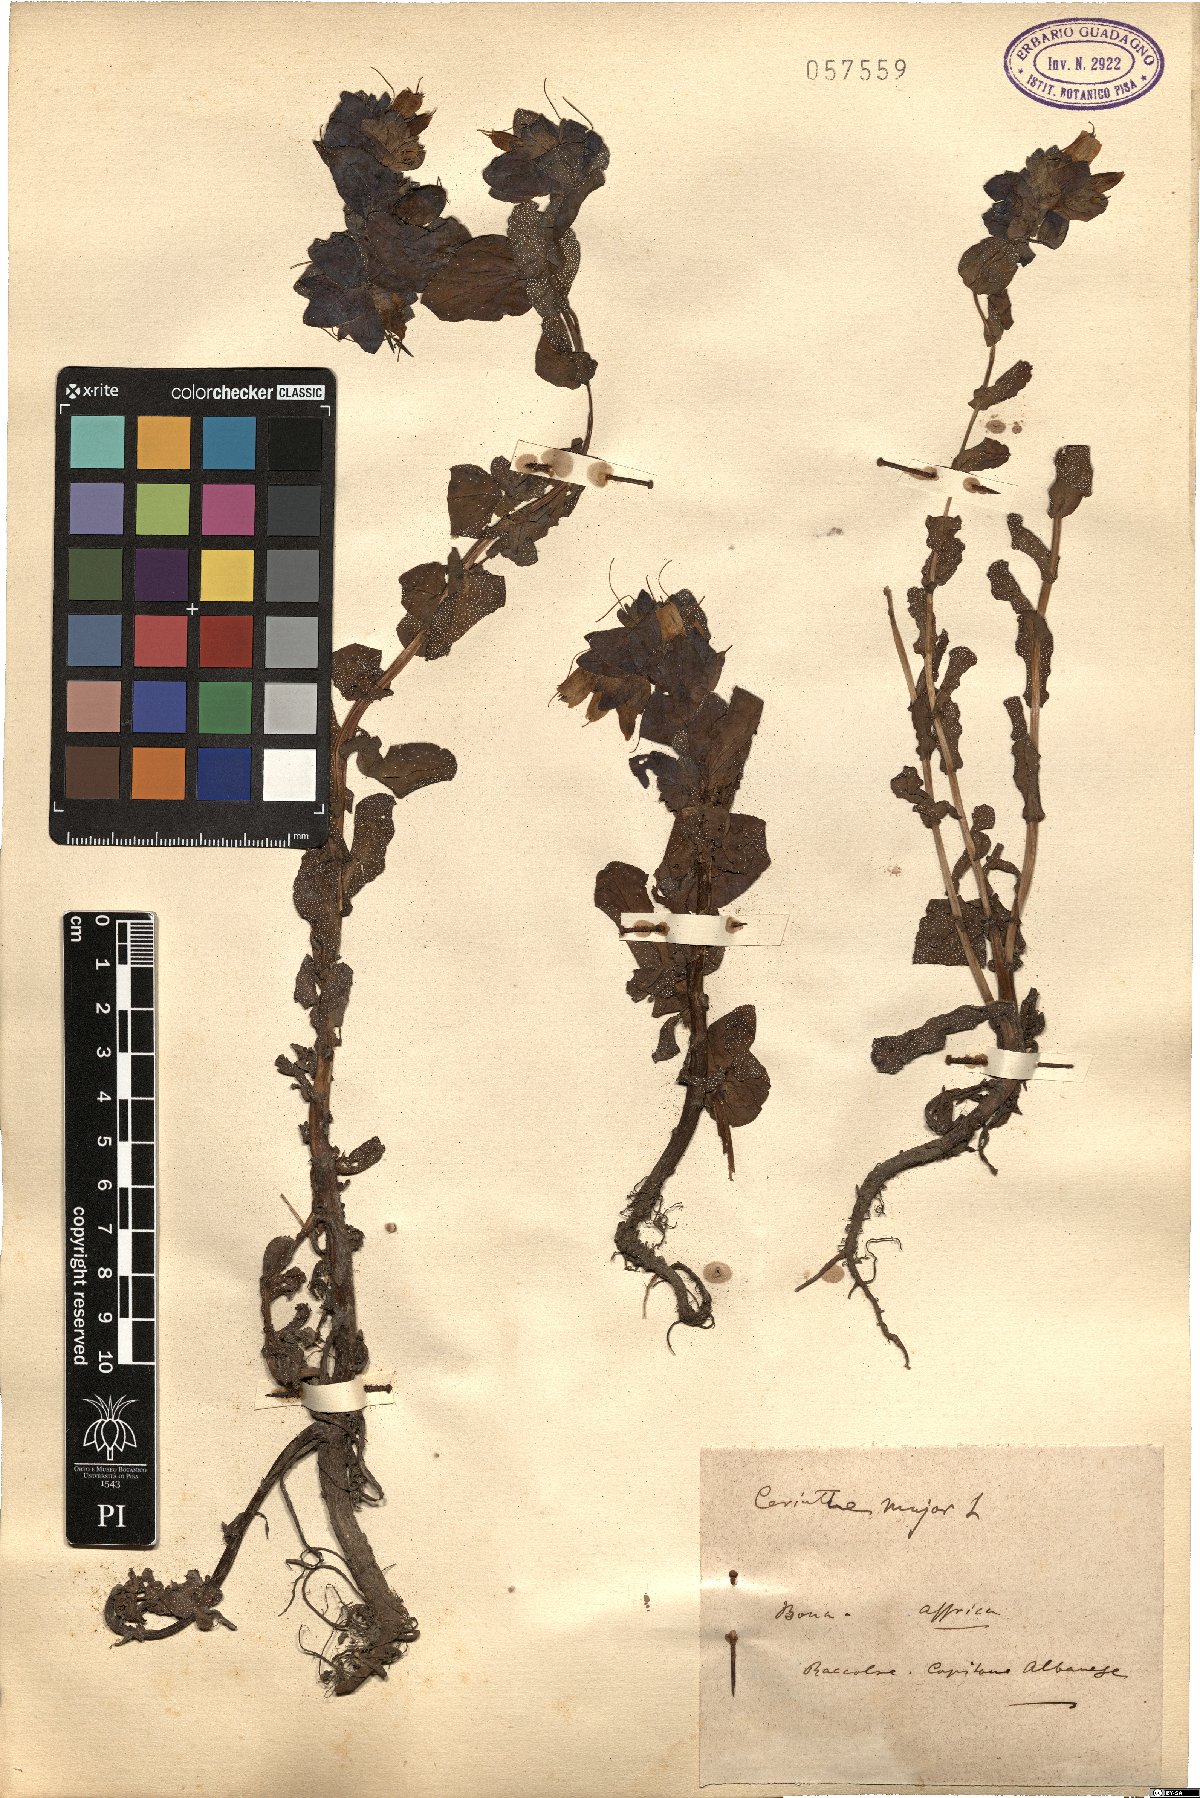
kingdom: Plantae
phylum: Tracheophyta
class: Magnoliopsida
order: Boraginales
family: Boraginaceae
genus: Cerinthe
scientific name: Cerinthe major
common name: Greater honeywort
